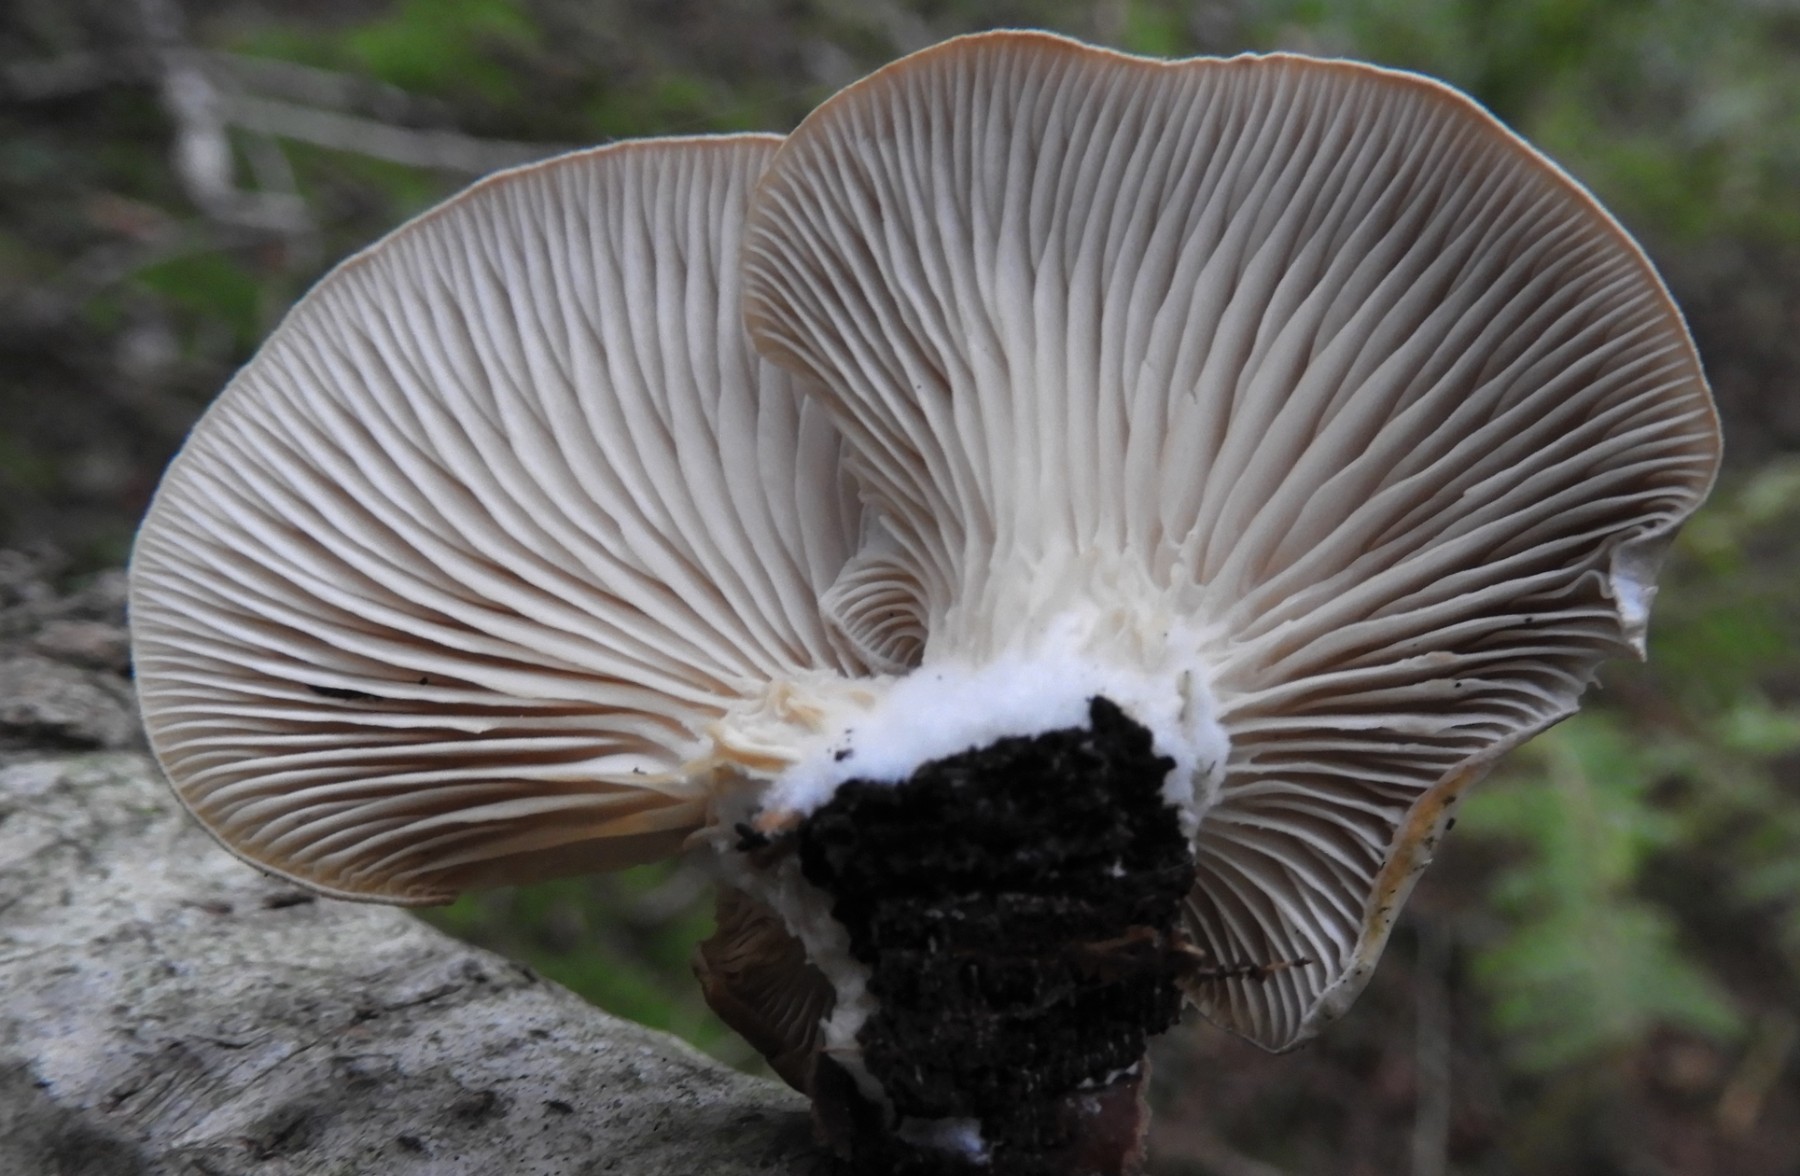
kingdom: Fungi
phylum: Basidiomycota
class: Agaricomycetes
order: Agaricales
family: Pleurotaceae
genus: Pleurotus
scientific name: Pleurotus ostreatus
